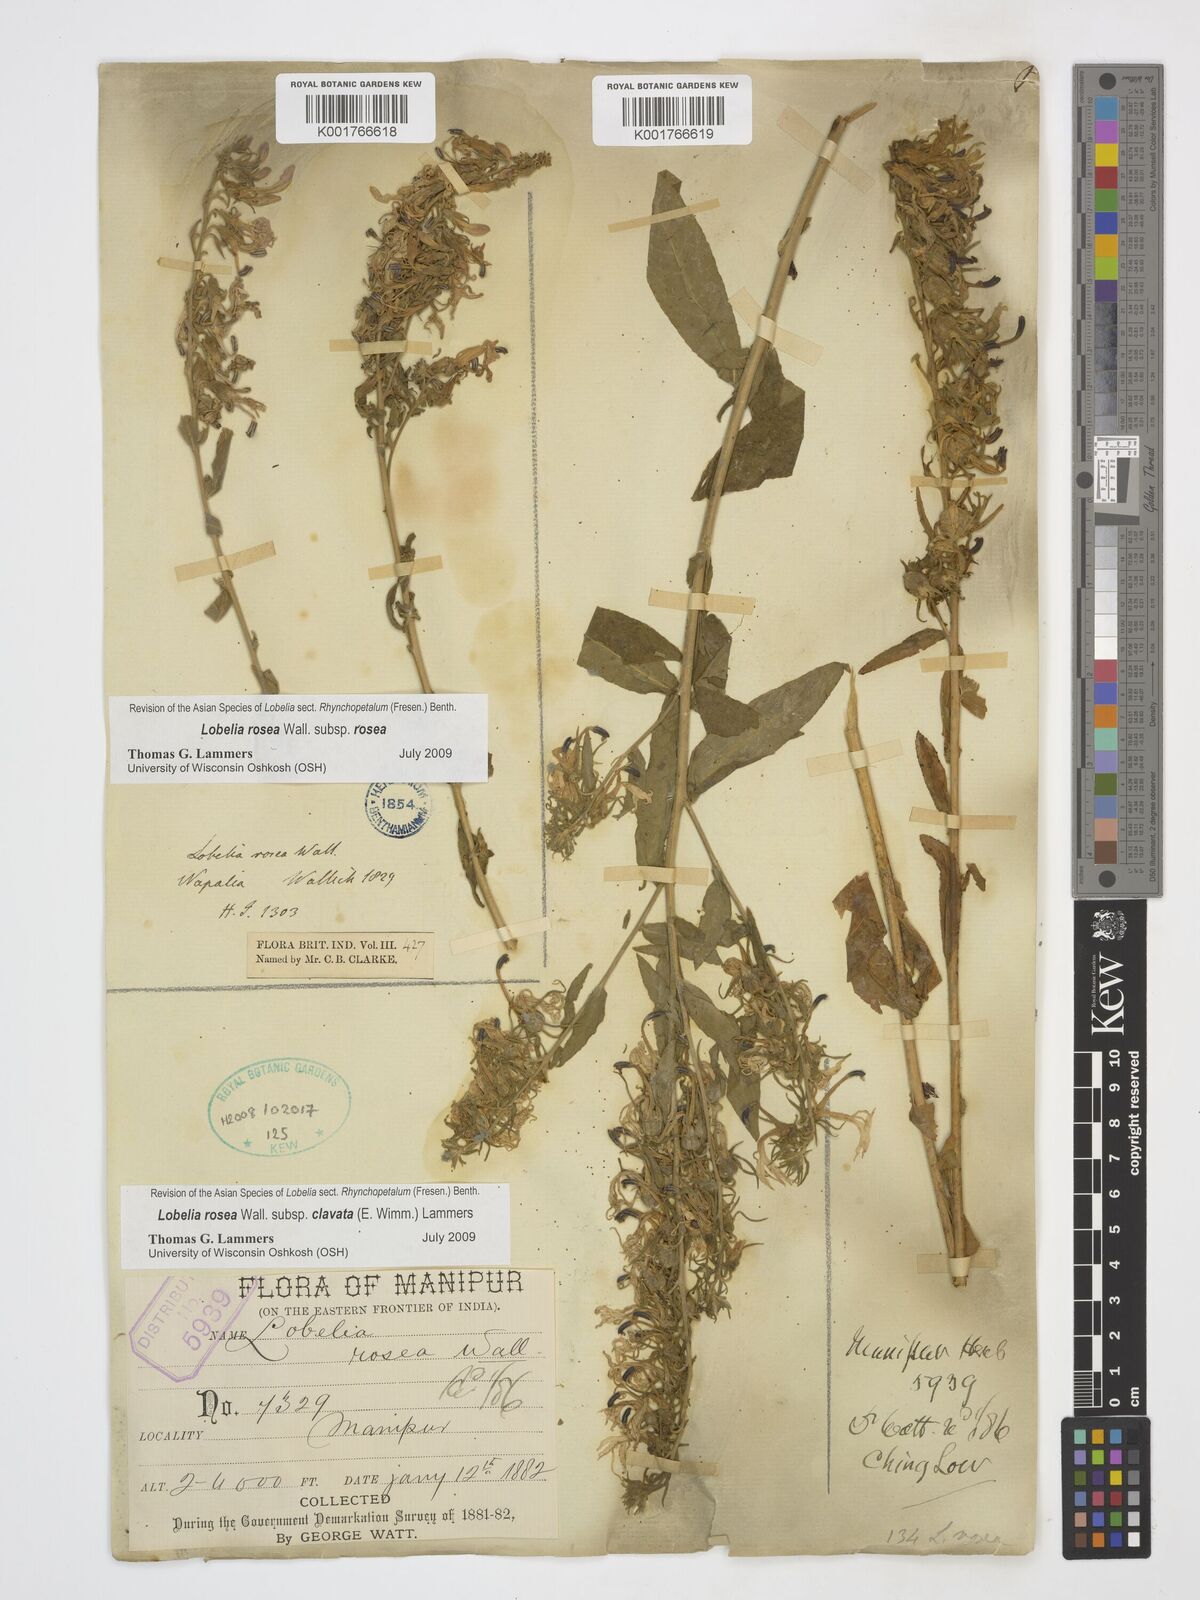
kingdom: Plantae
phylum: Tracheophyta
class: Magnoliopsida
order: Asterales
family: Campanulaceae
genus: Lobelia
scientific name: Lobelia rosea
